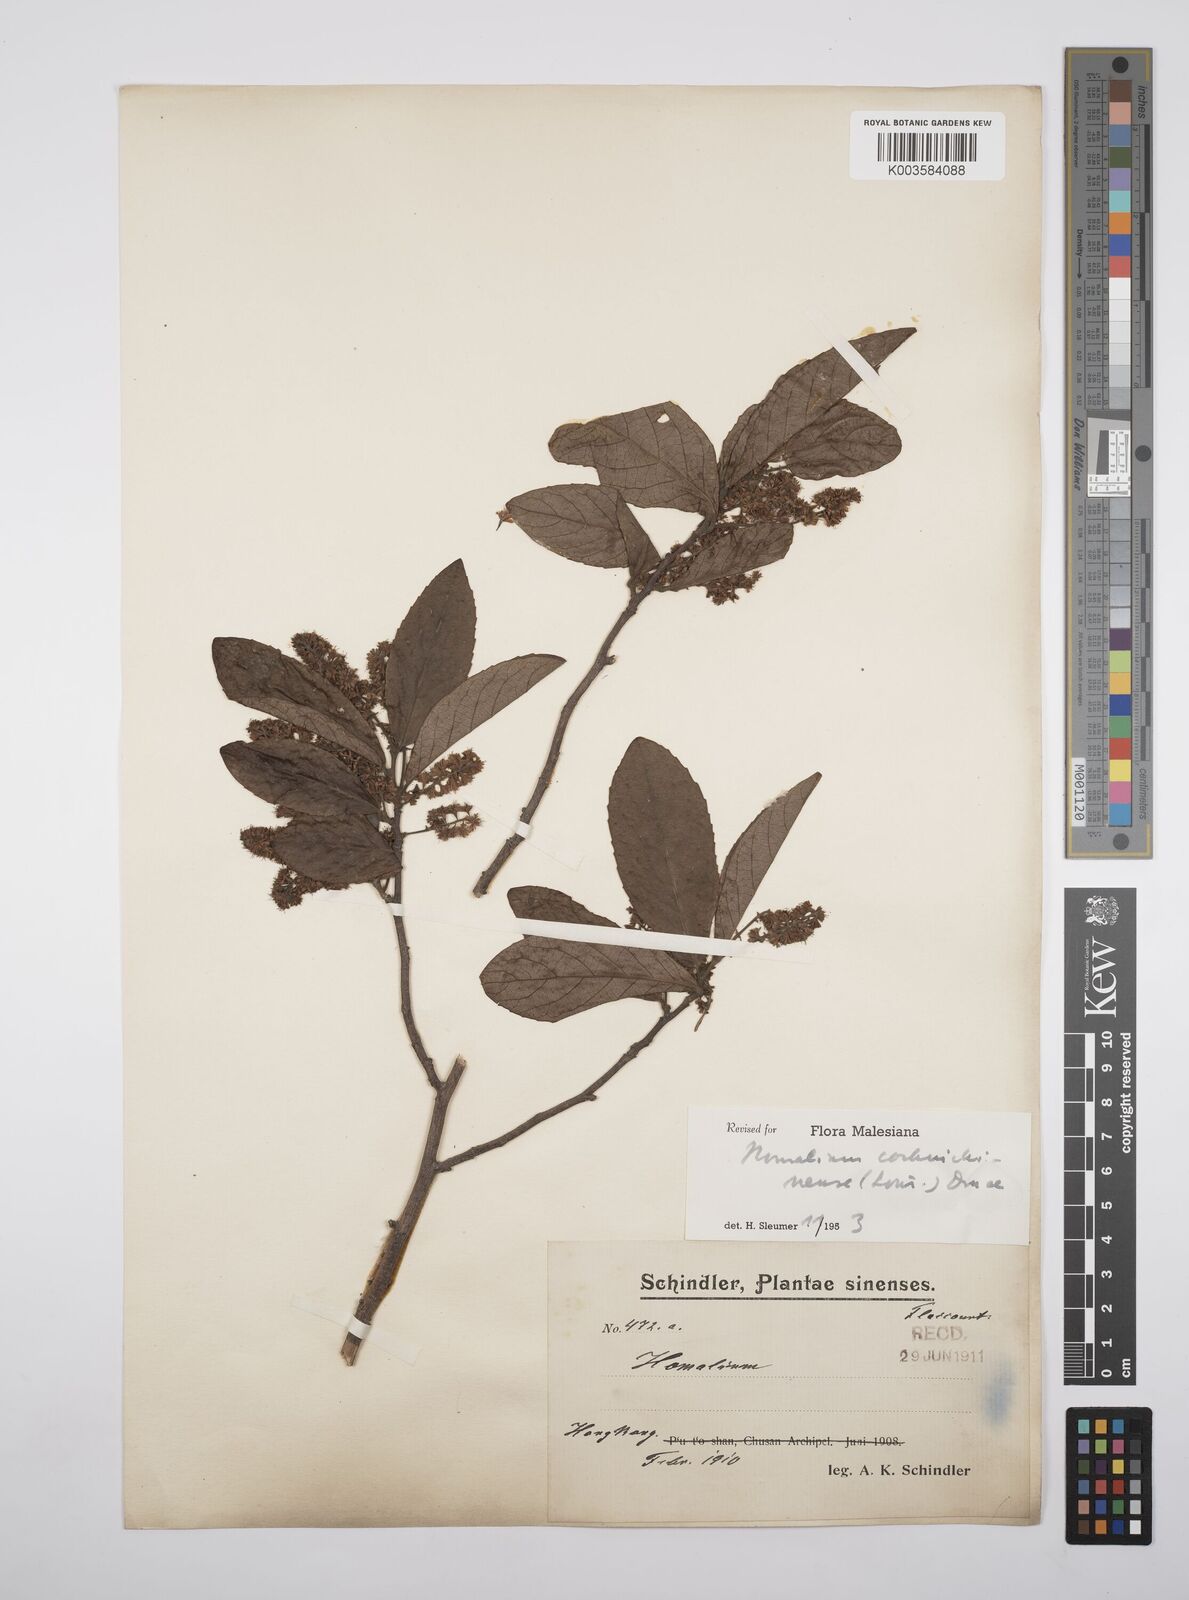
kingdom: Plantae
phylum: Tracheophyta
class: Magnoliopsida
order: Malpighiales
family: Salicaceae
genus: Homalium
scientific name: Homalium cochinchinensis
